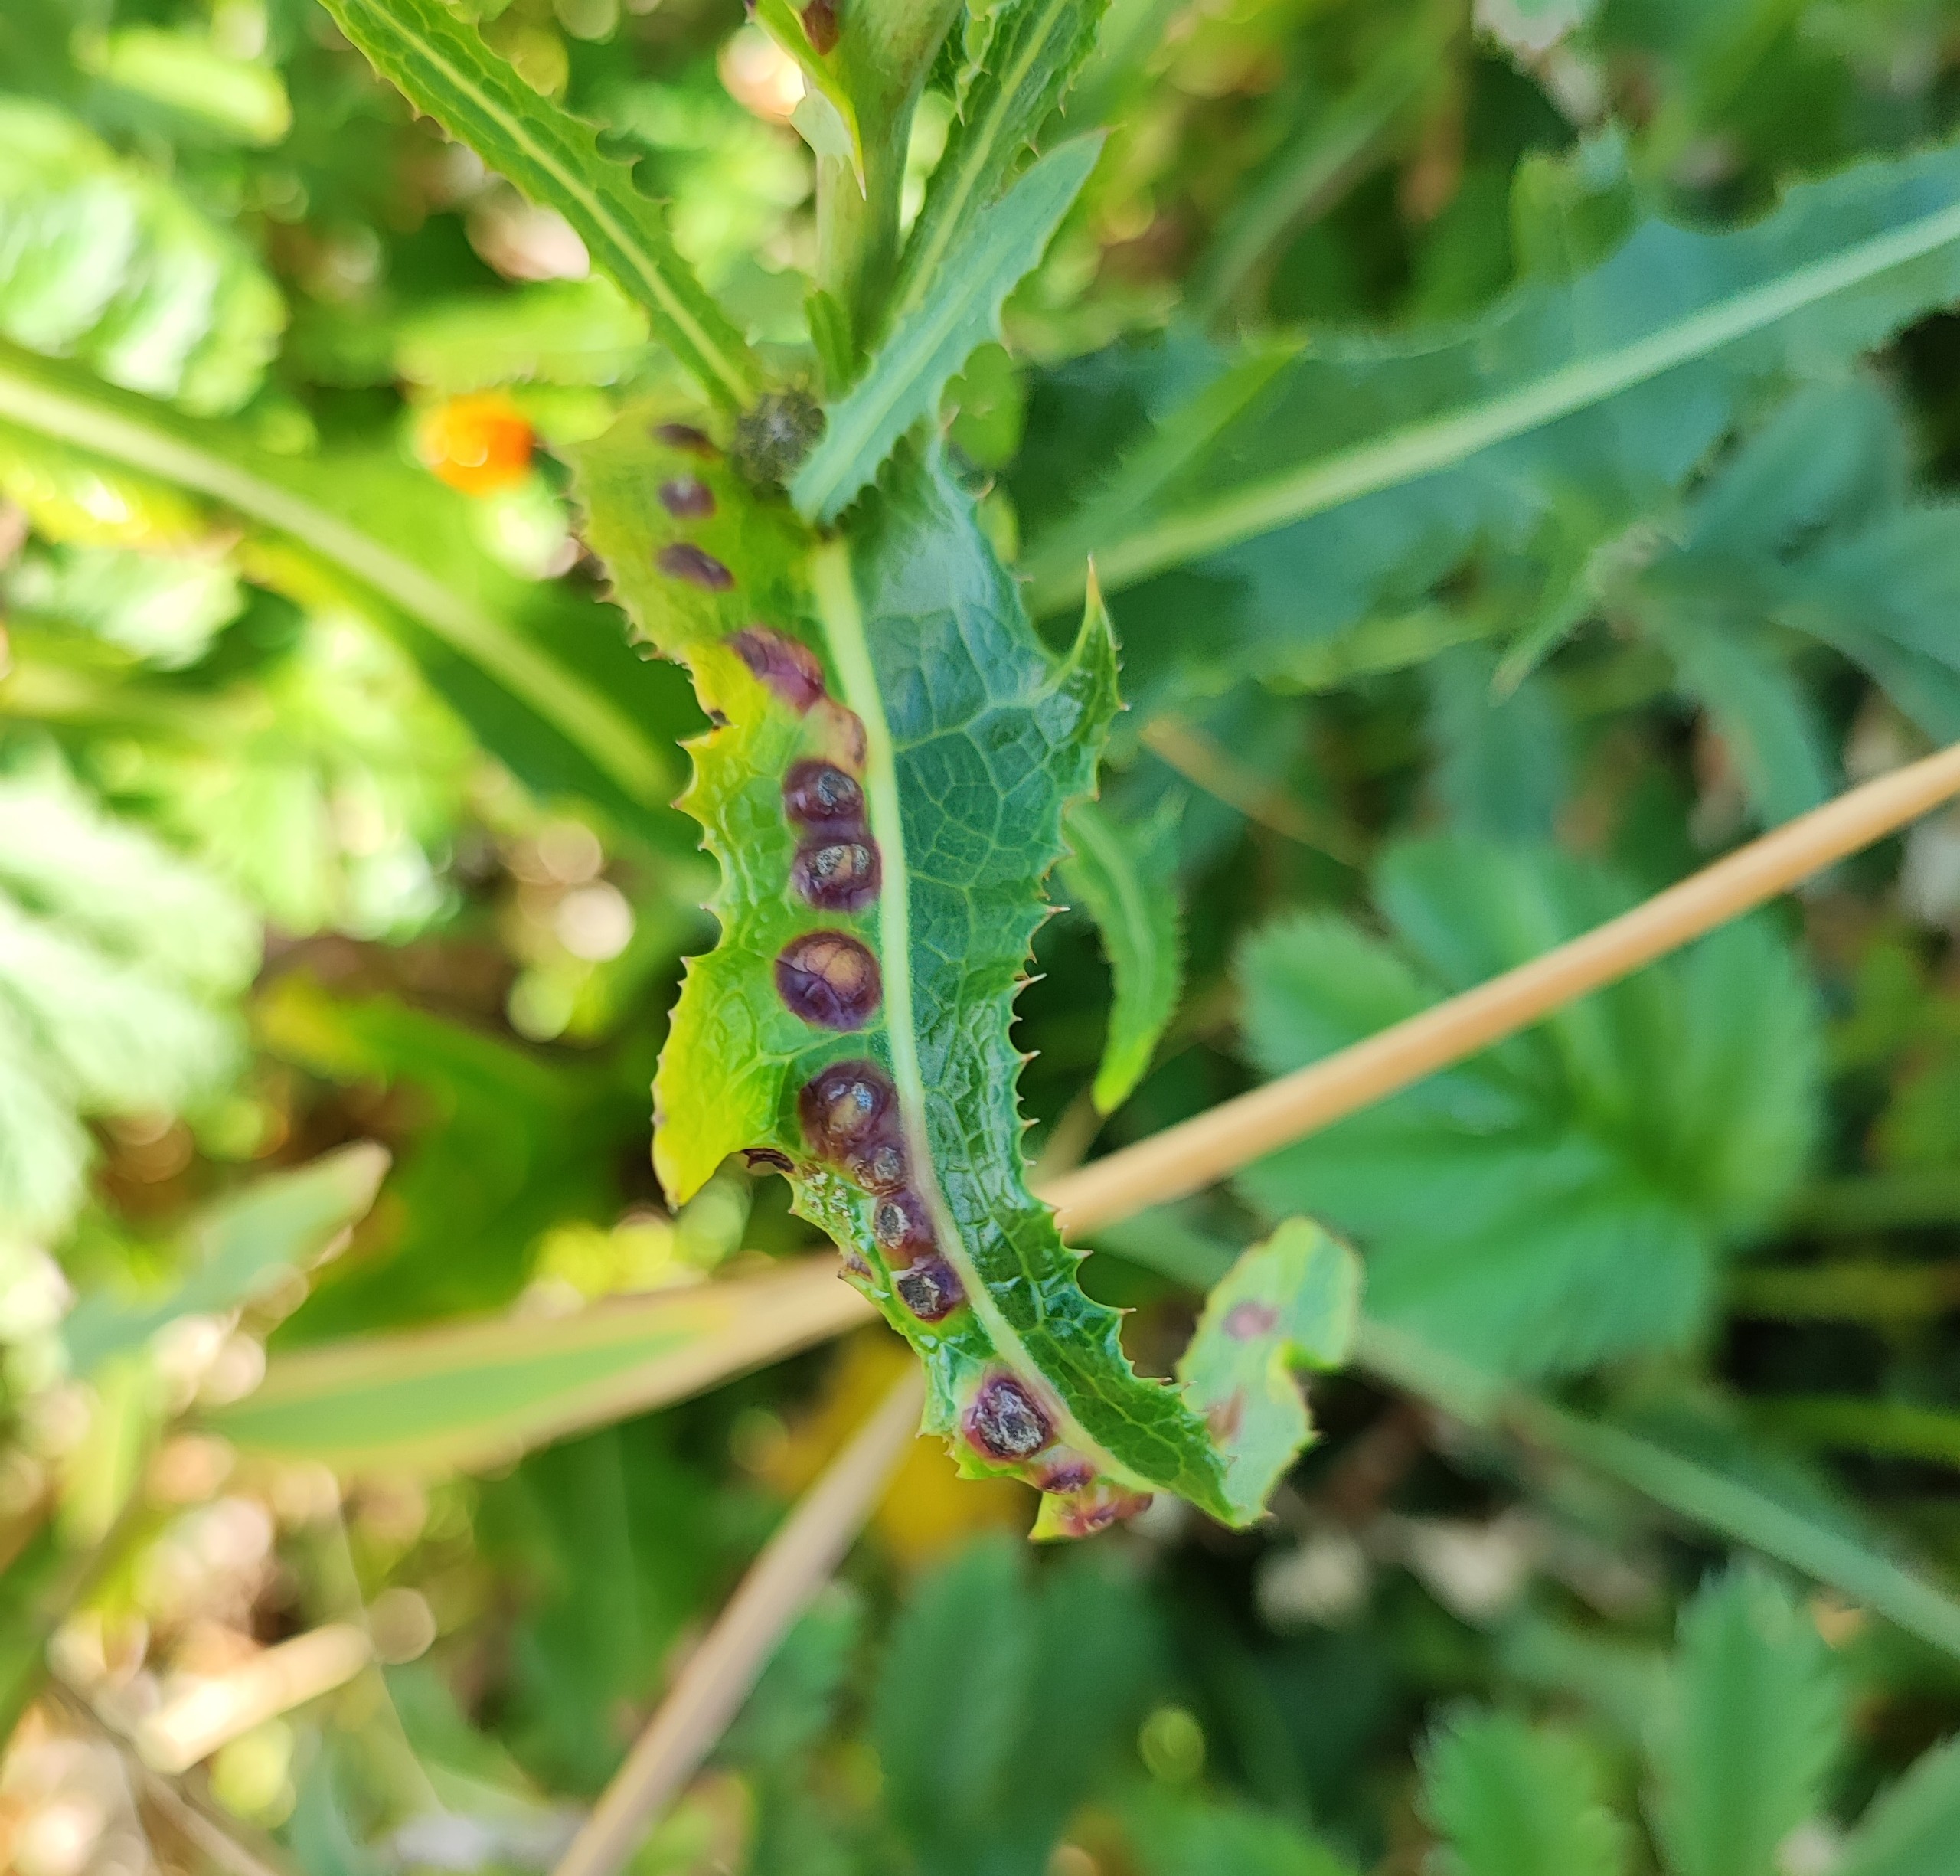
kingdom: Animalia
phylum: Arthropoda
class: Insecta
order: Diptera
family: Cecidomyiidae
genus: Cystiphora
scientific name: Cystiphora sonchi
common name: Svineblæregalmyg
